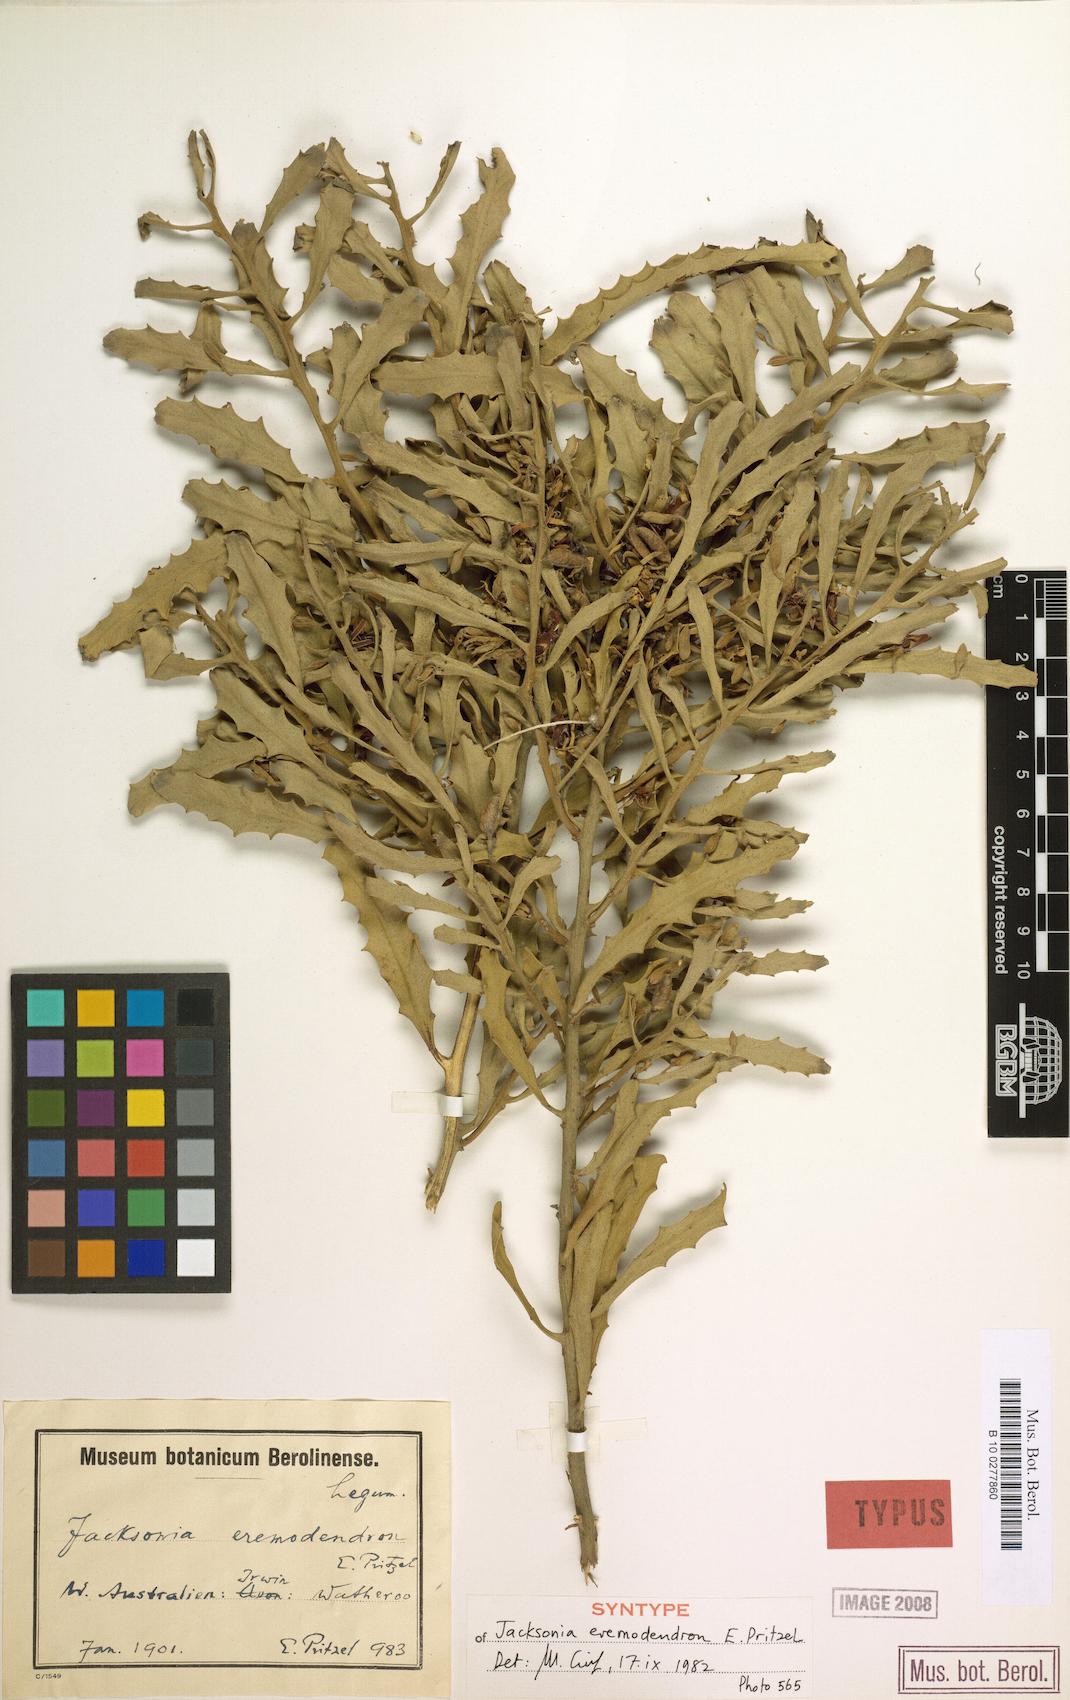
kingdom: Plantae
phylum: Tracheophyta
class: Magnoliopsida
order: Fabales
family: Fabaceae
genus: Jacksonia
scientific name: Jacksonia eremodendron
